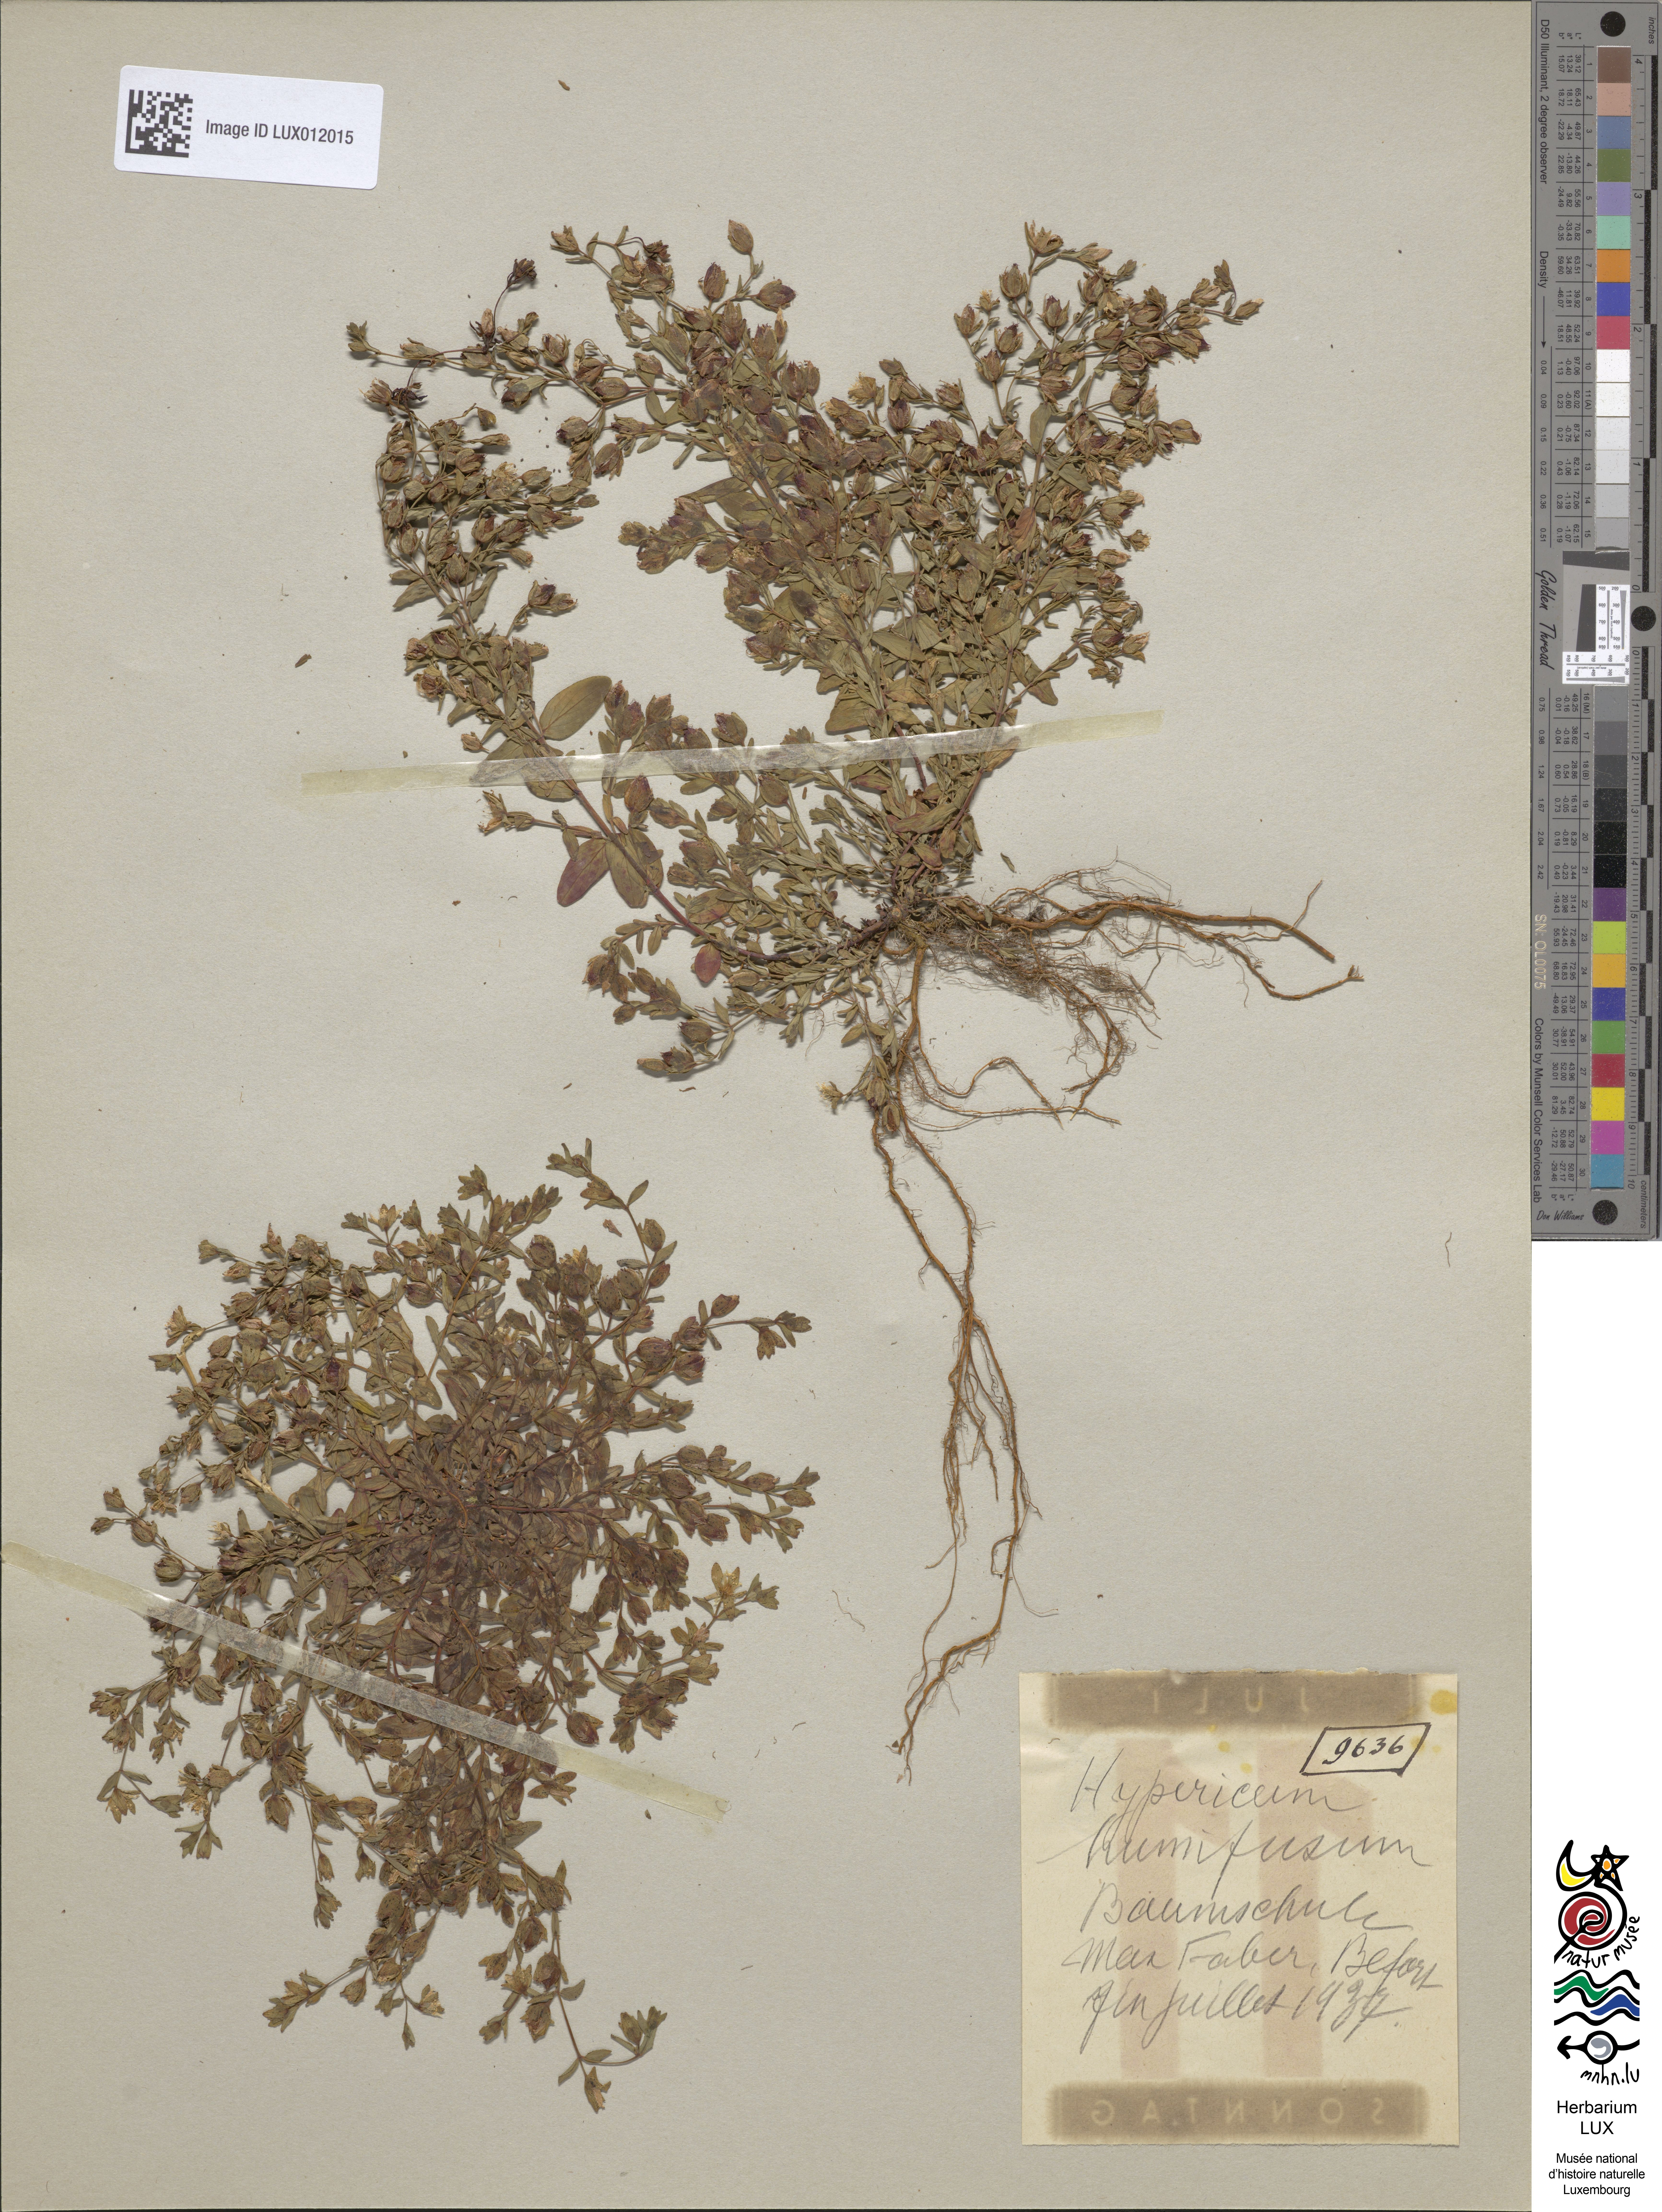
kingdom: Plantae
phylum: Tracheophyta
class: Magnoliopsida
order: Malpighiales
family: Hypericaceae
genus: Hypericum
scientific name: Hypericum humifusum
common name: Trailing st. john's-wort
